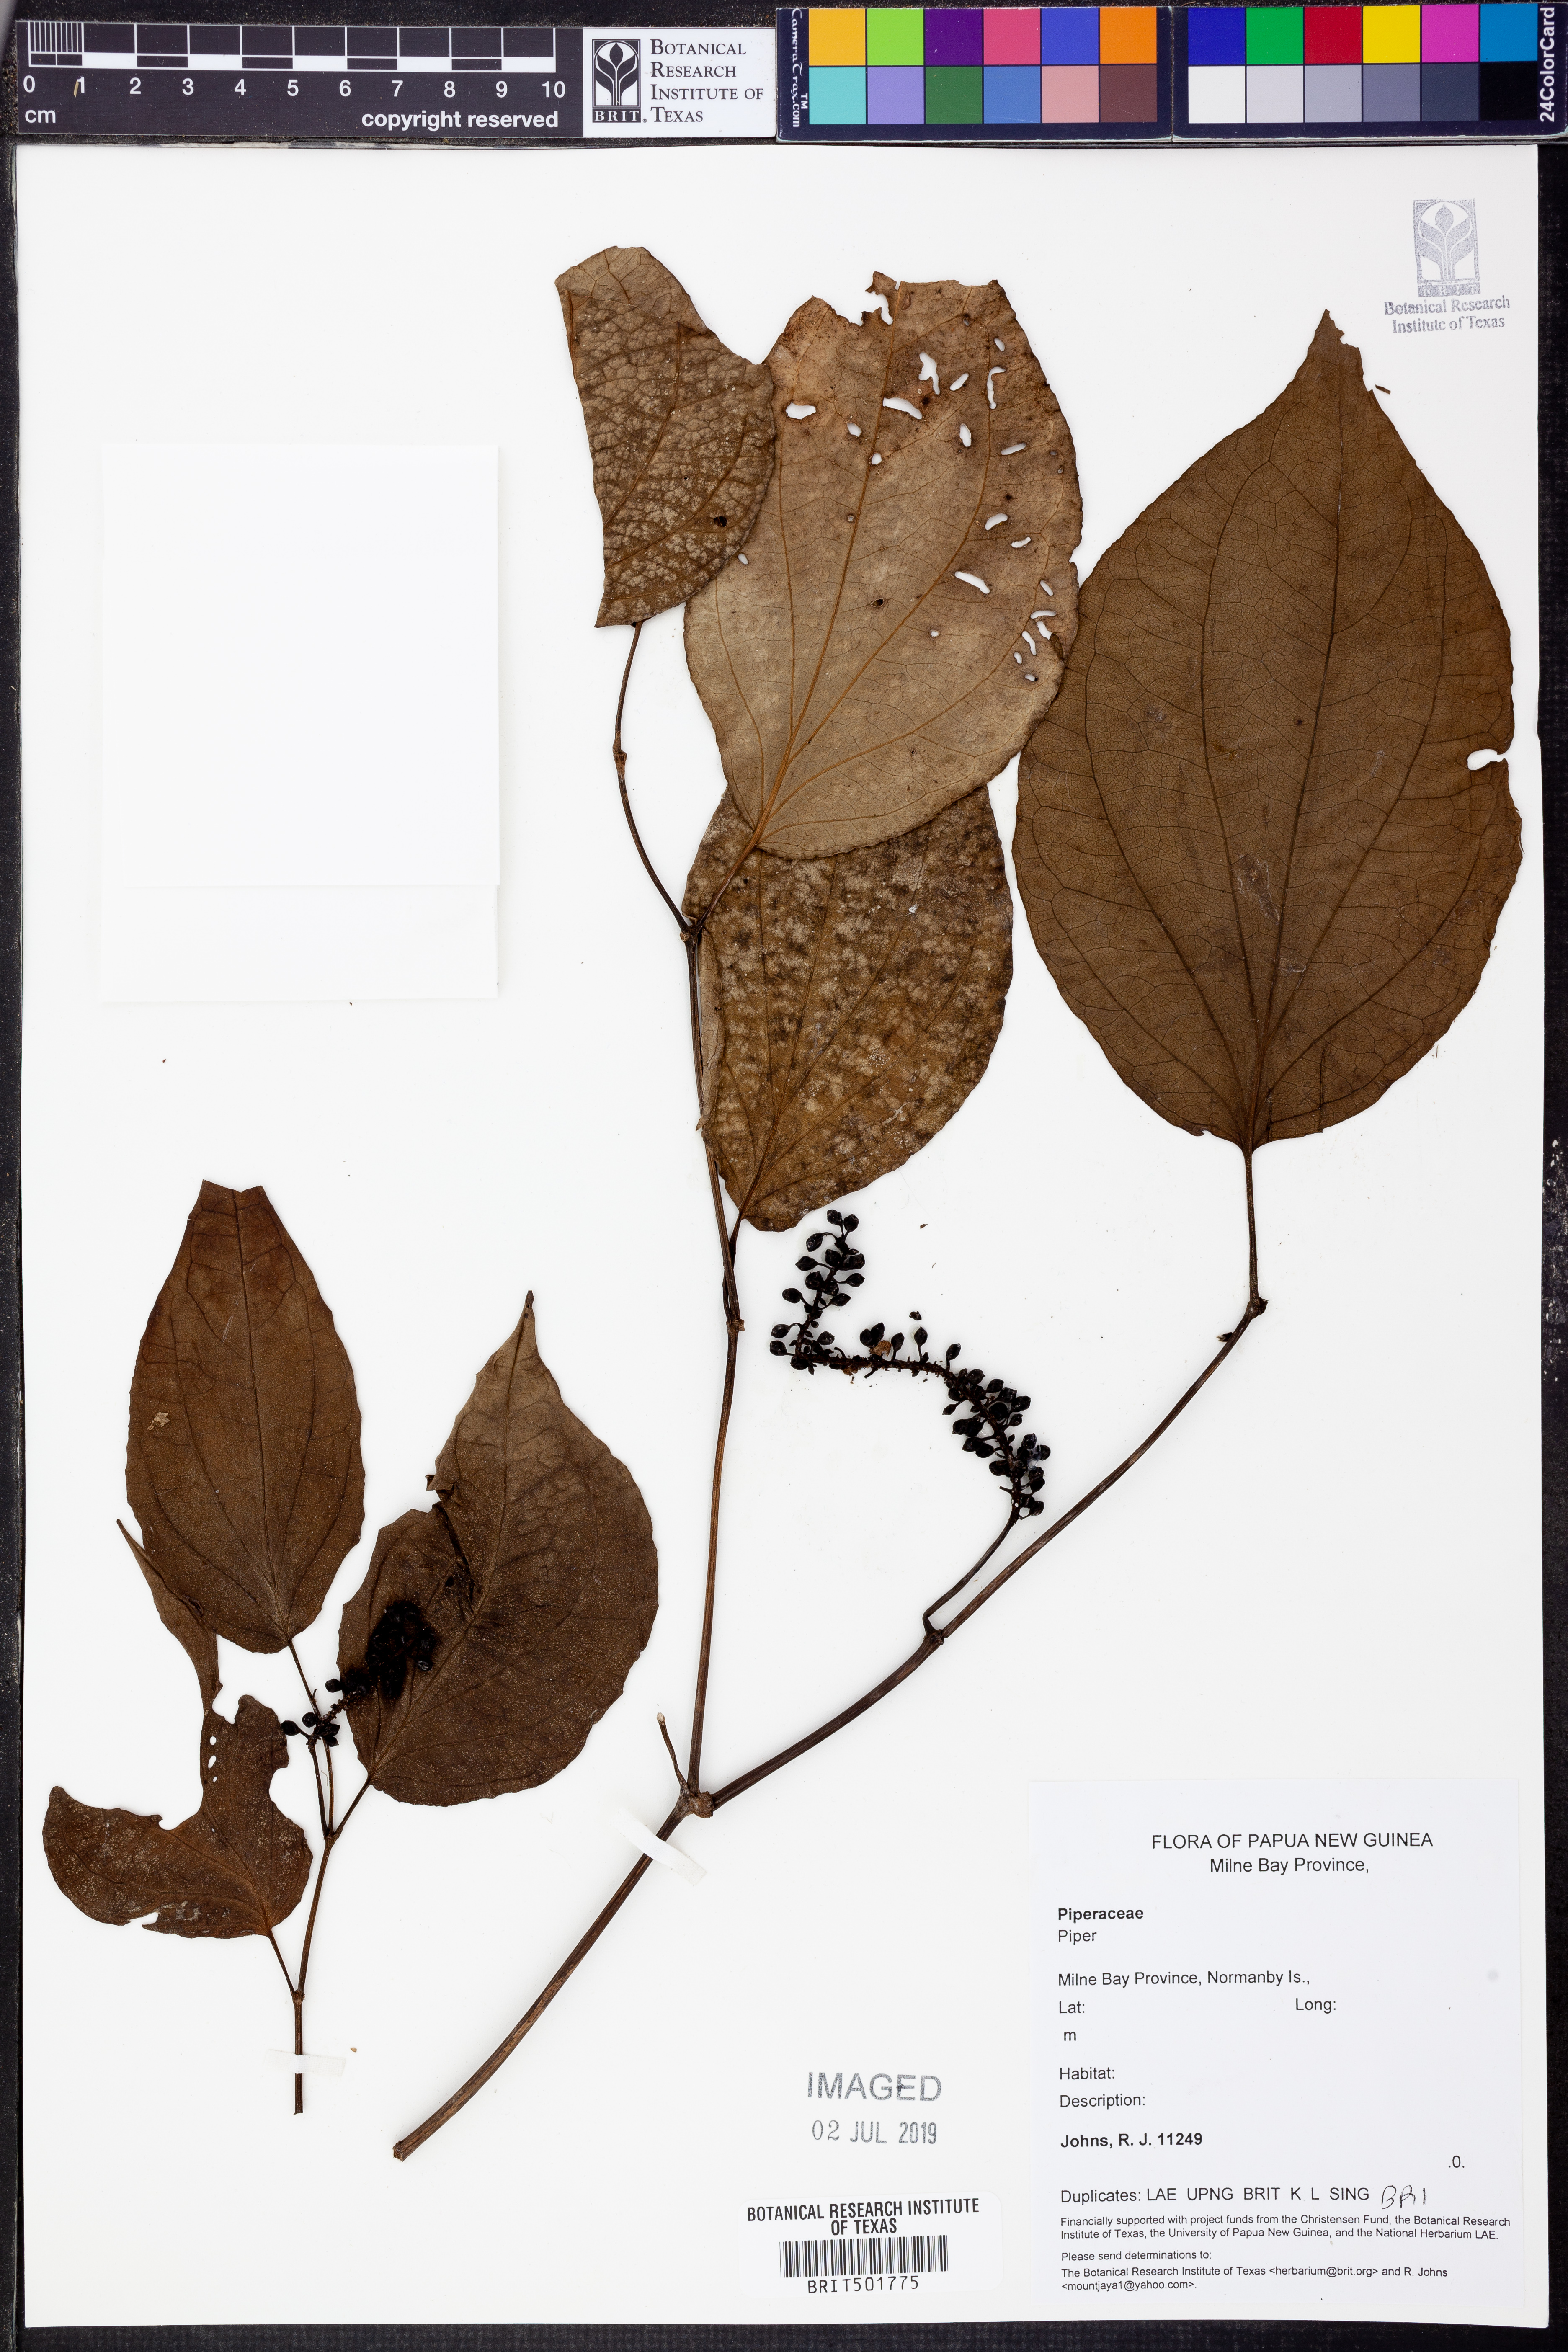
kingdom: Plantae
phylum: Tracheophyta
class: Magnoliopsida
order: Piperales
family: Piperaceae
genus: Piper
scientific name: Piper
